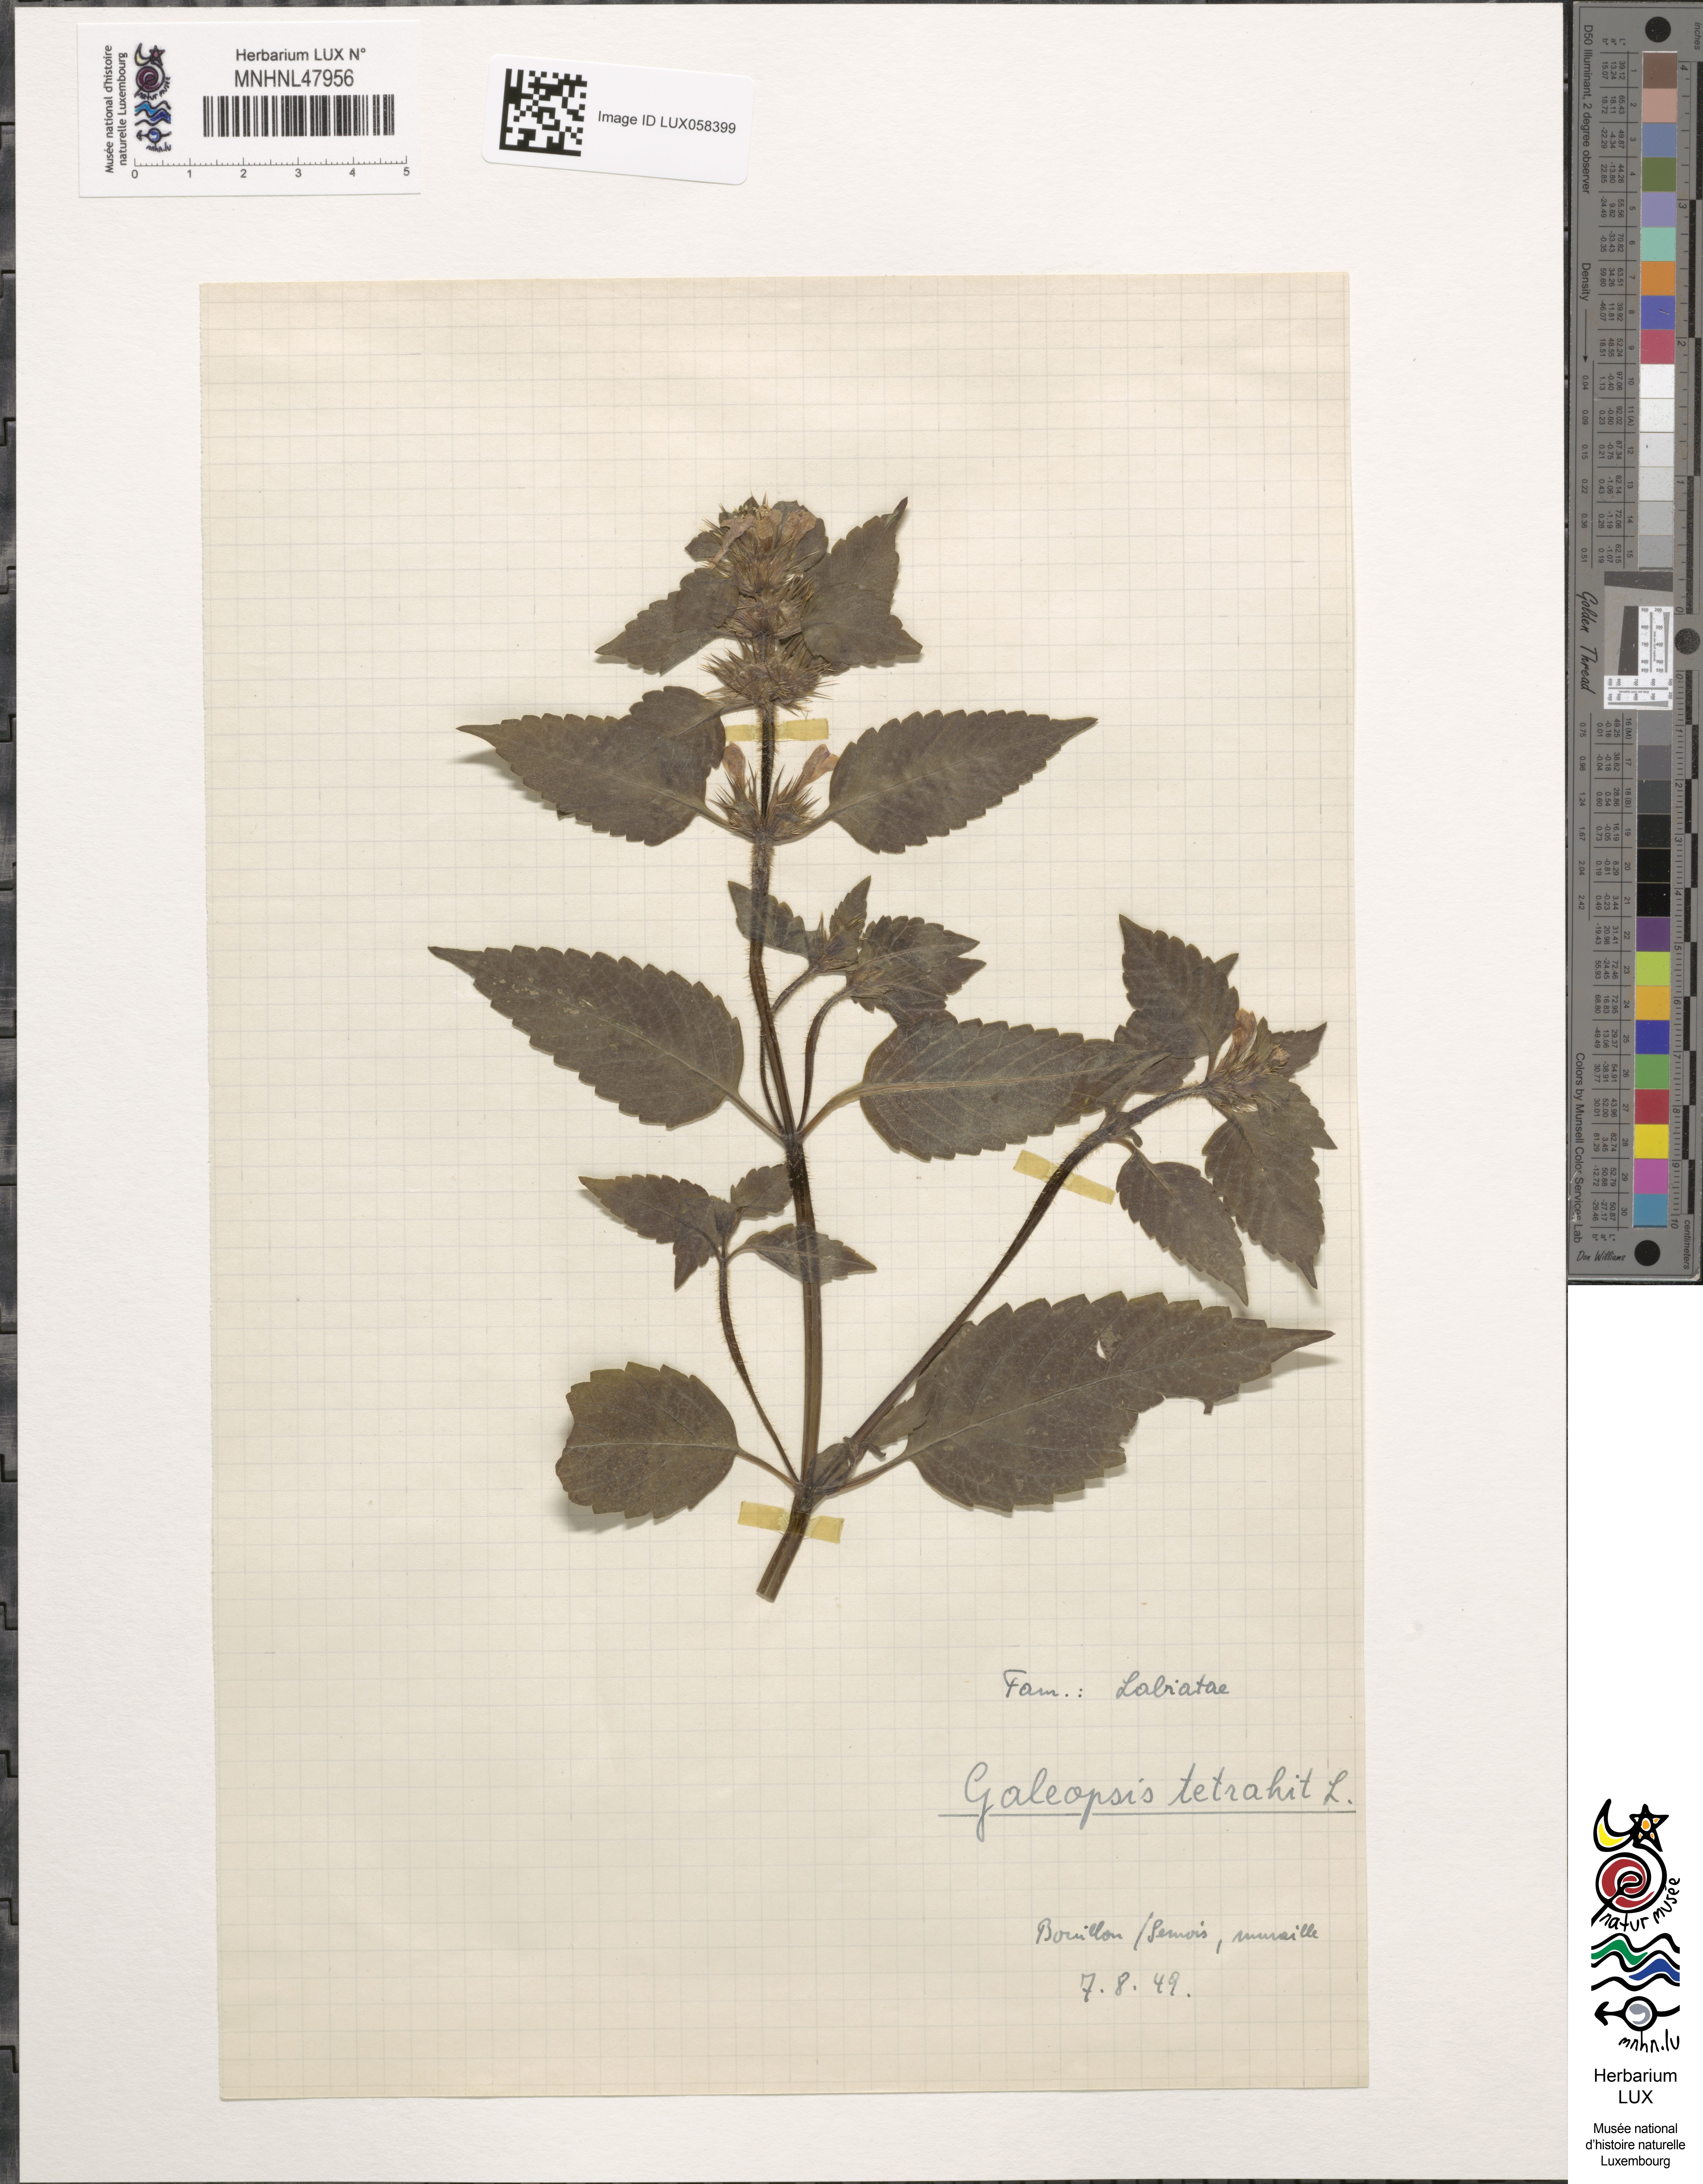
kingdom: Plantae
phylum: Tracheophyta
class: Magnoliopsida
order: Lamiales
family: Lamiaceae
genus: Galeopsis
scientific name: Galeopsis tetrahit
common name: Common hemp-nettle
